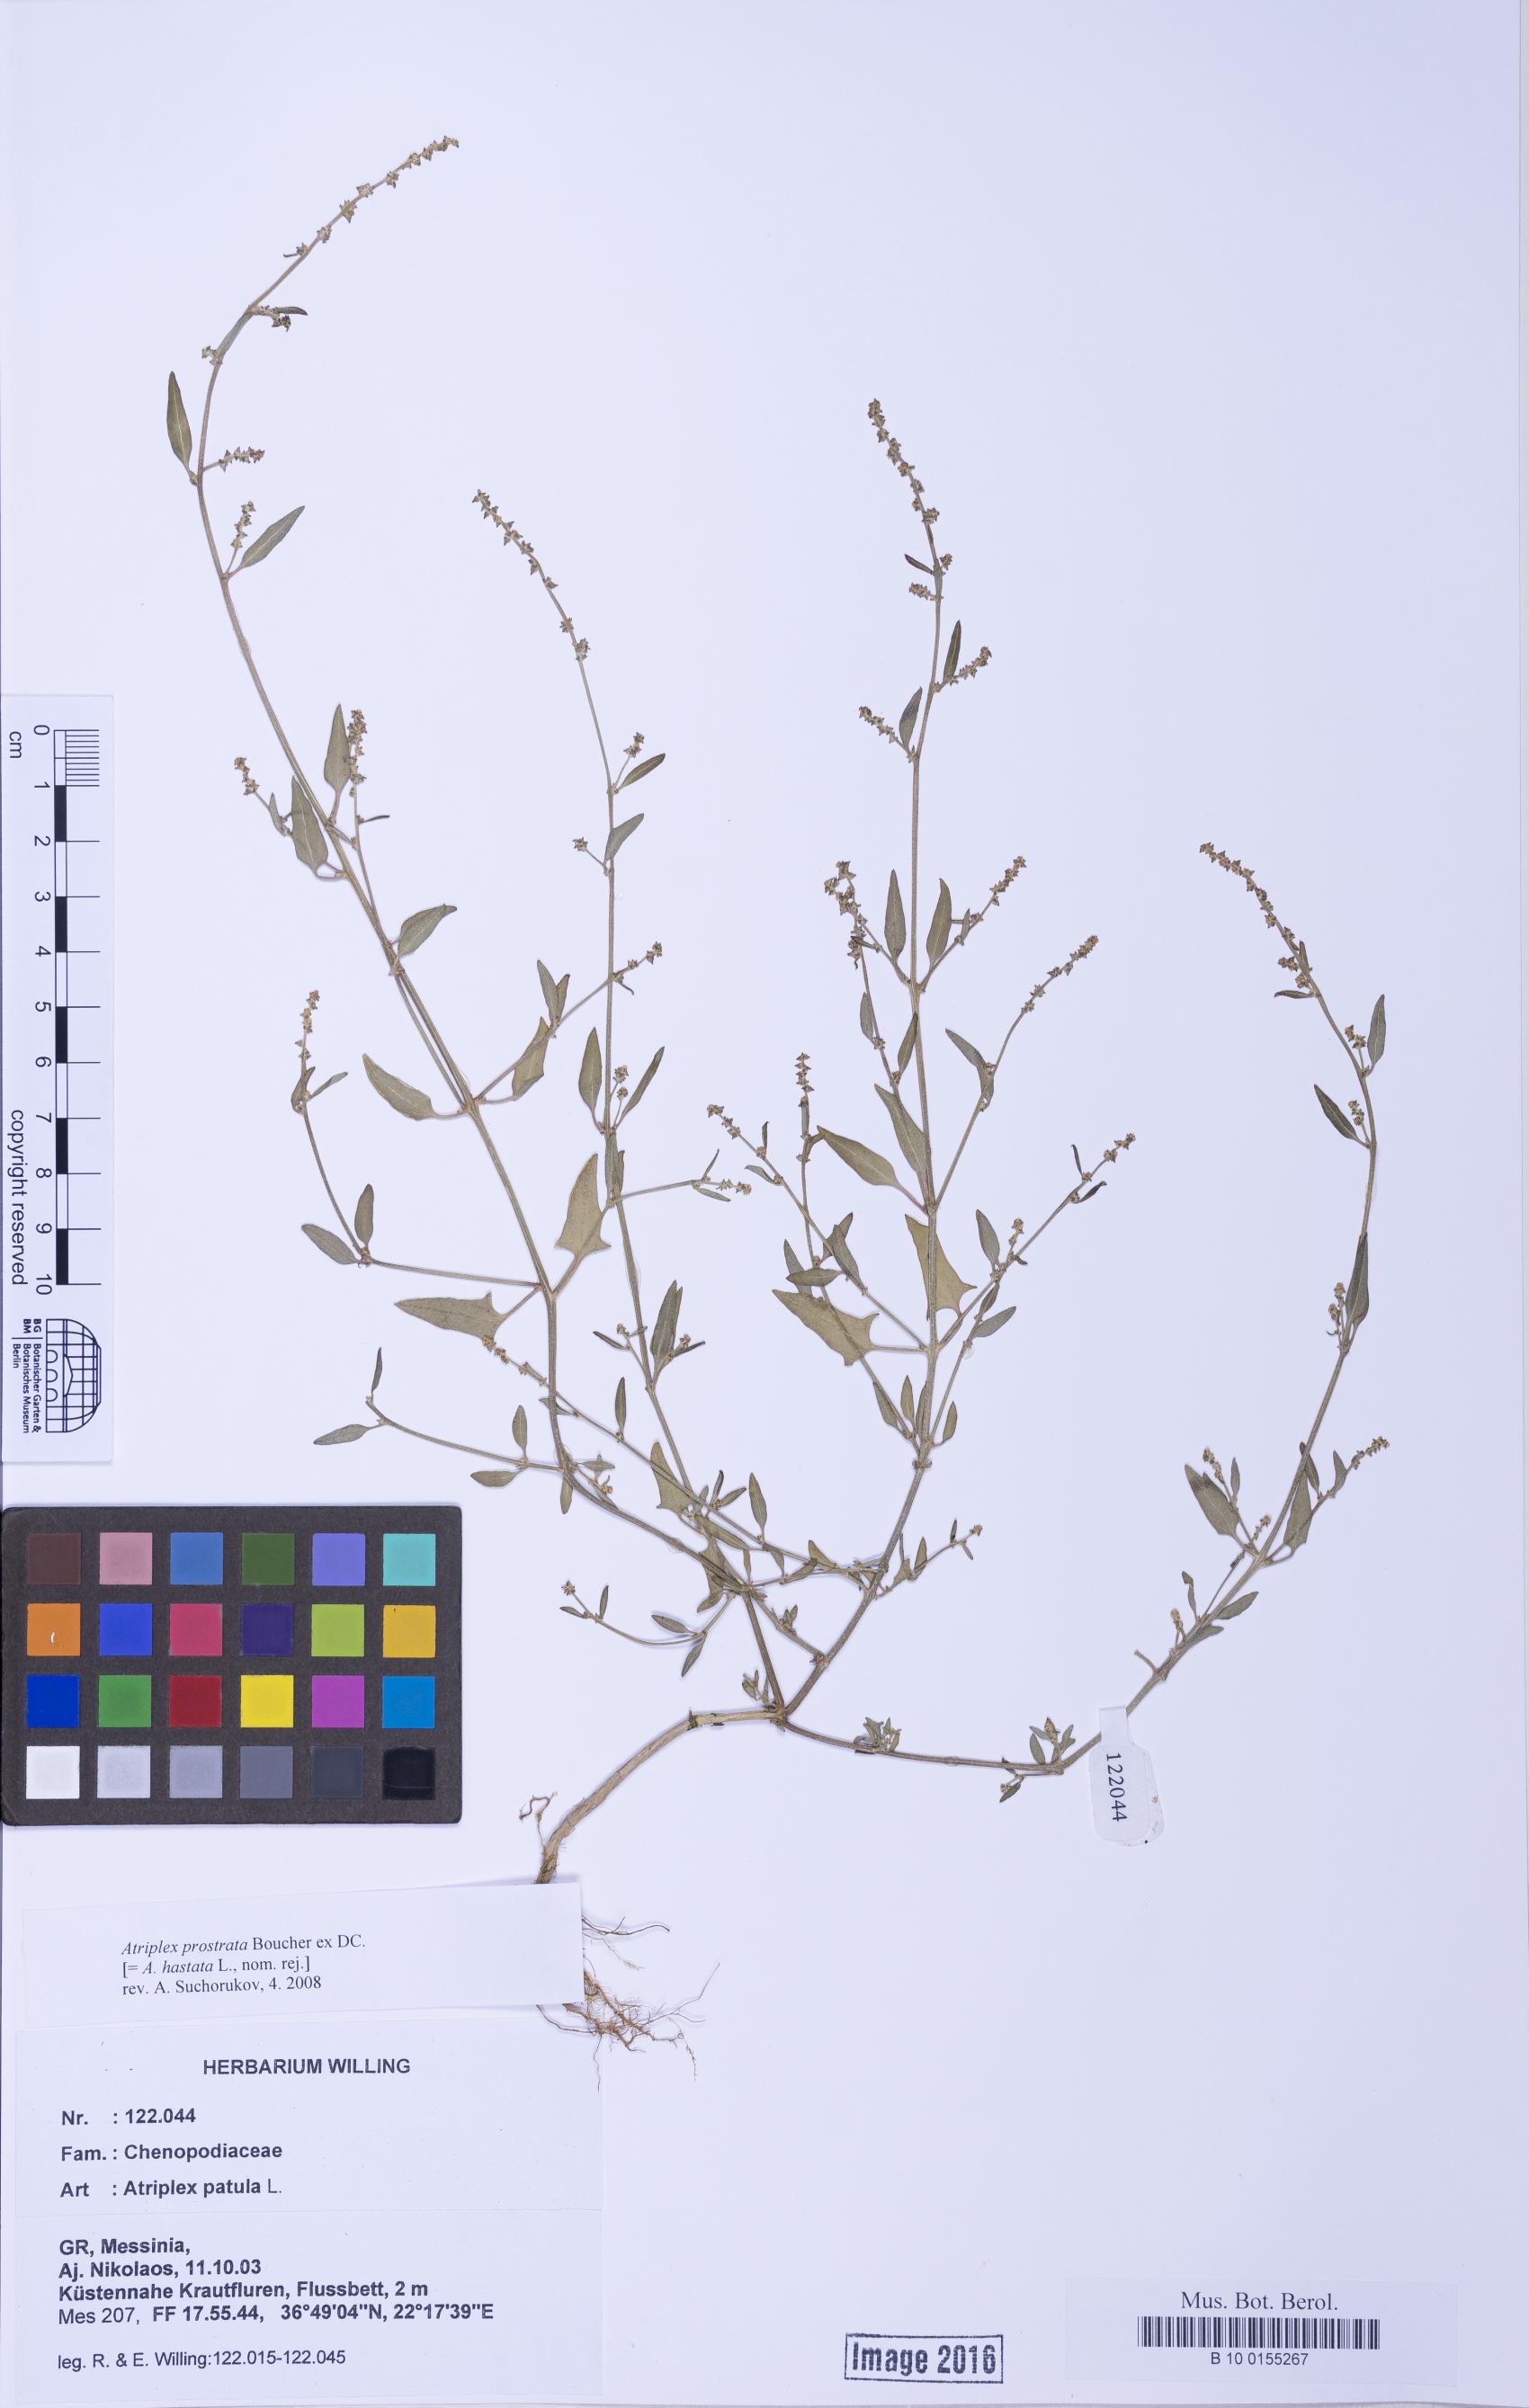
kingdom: Plantae
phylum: Tracheophyta
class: Magnoliopsida
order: Caryophyllales
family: Amaranthaceae
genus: Atriplex
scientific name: Atriplex prostrata
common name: Spear-leaved orache
